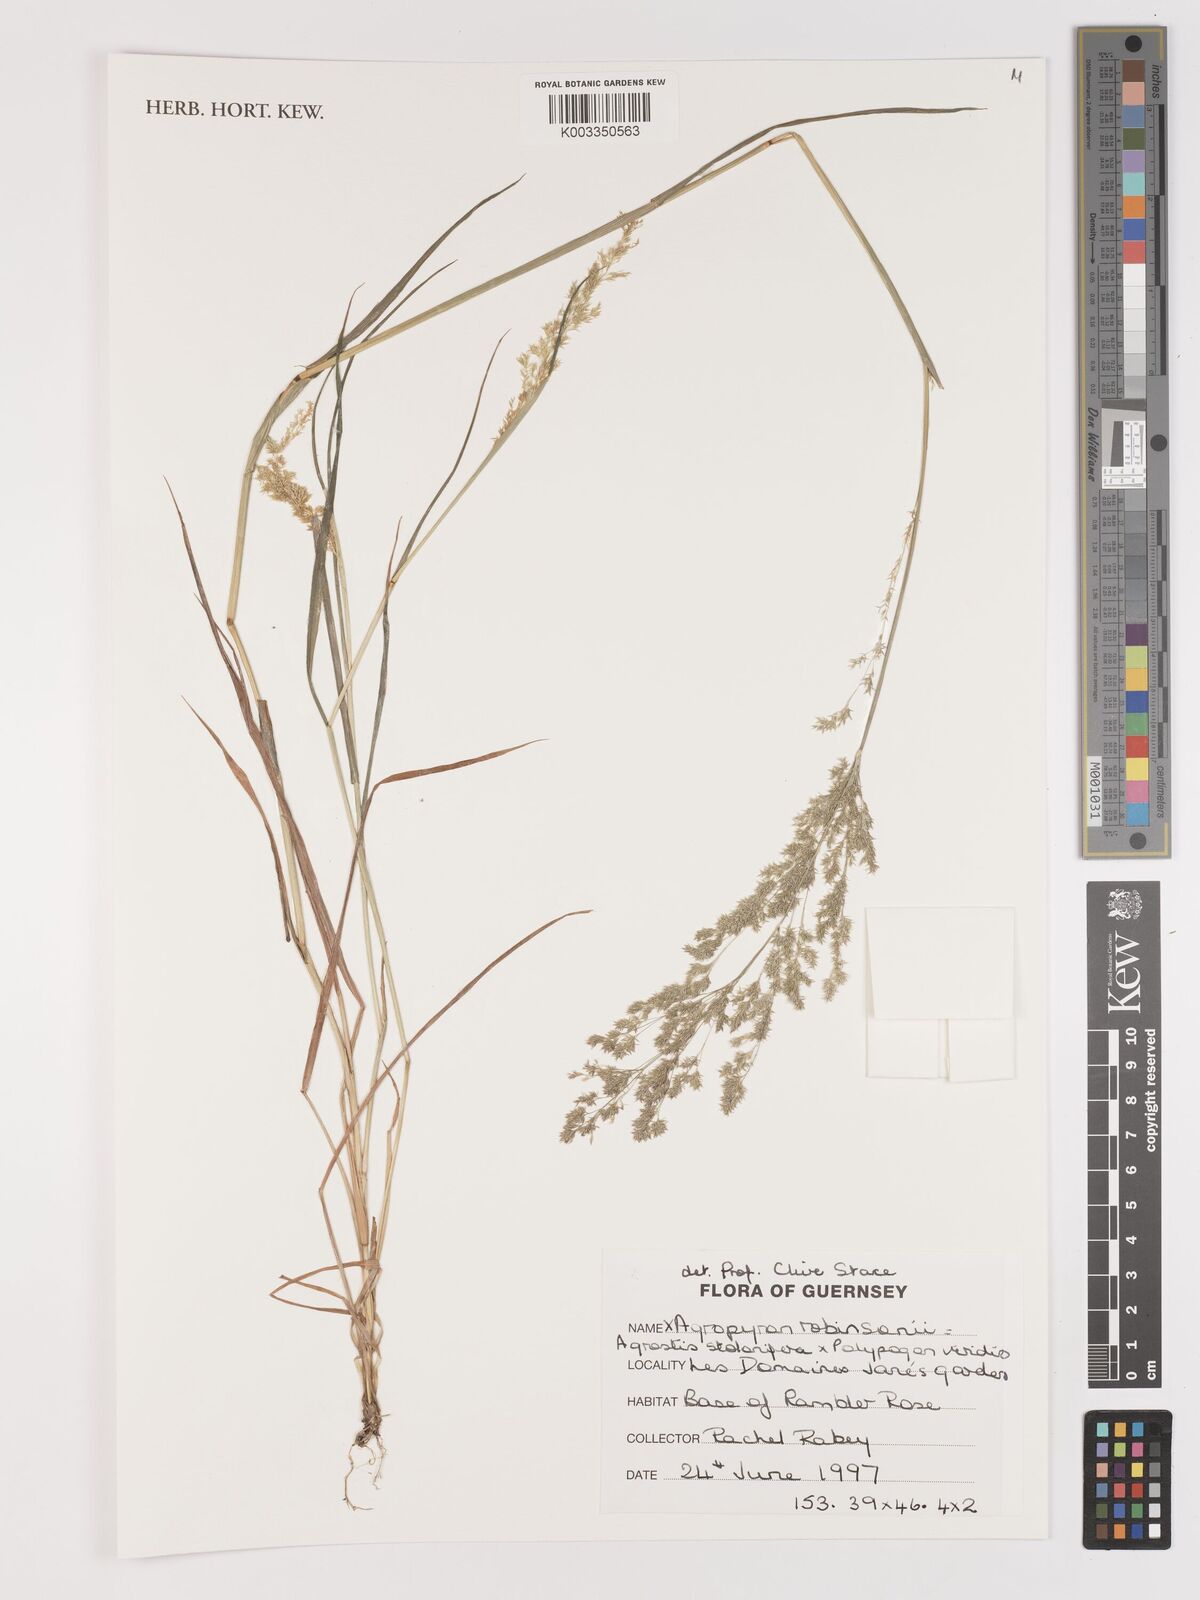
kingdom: Plantae
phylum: Tracheophyta
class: Liliopsida
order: Poales
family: Poaceae
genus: Agropogon
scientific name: Agropogon robinsonii
